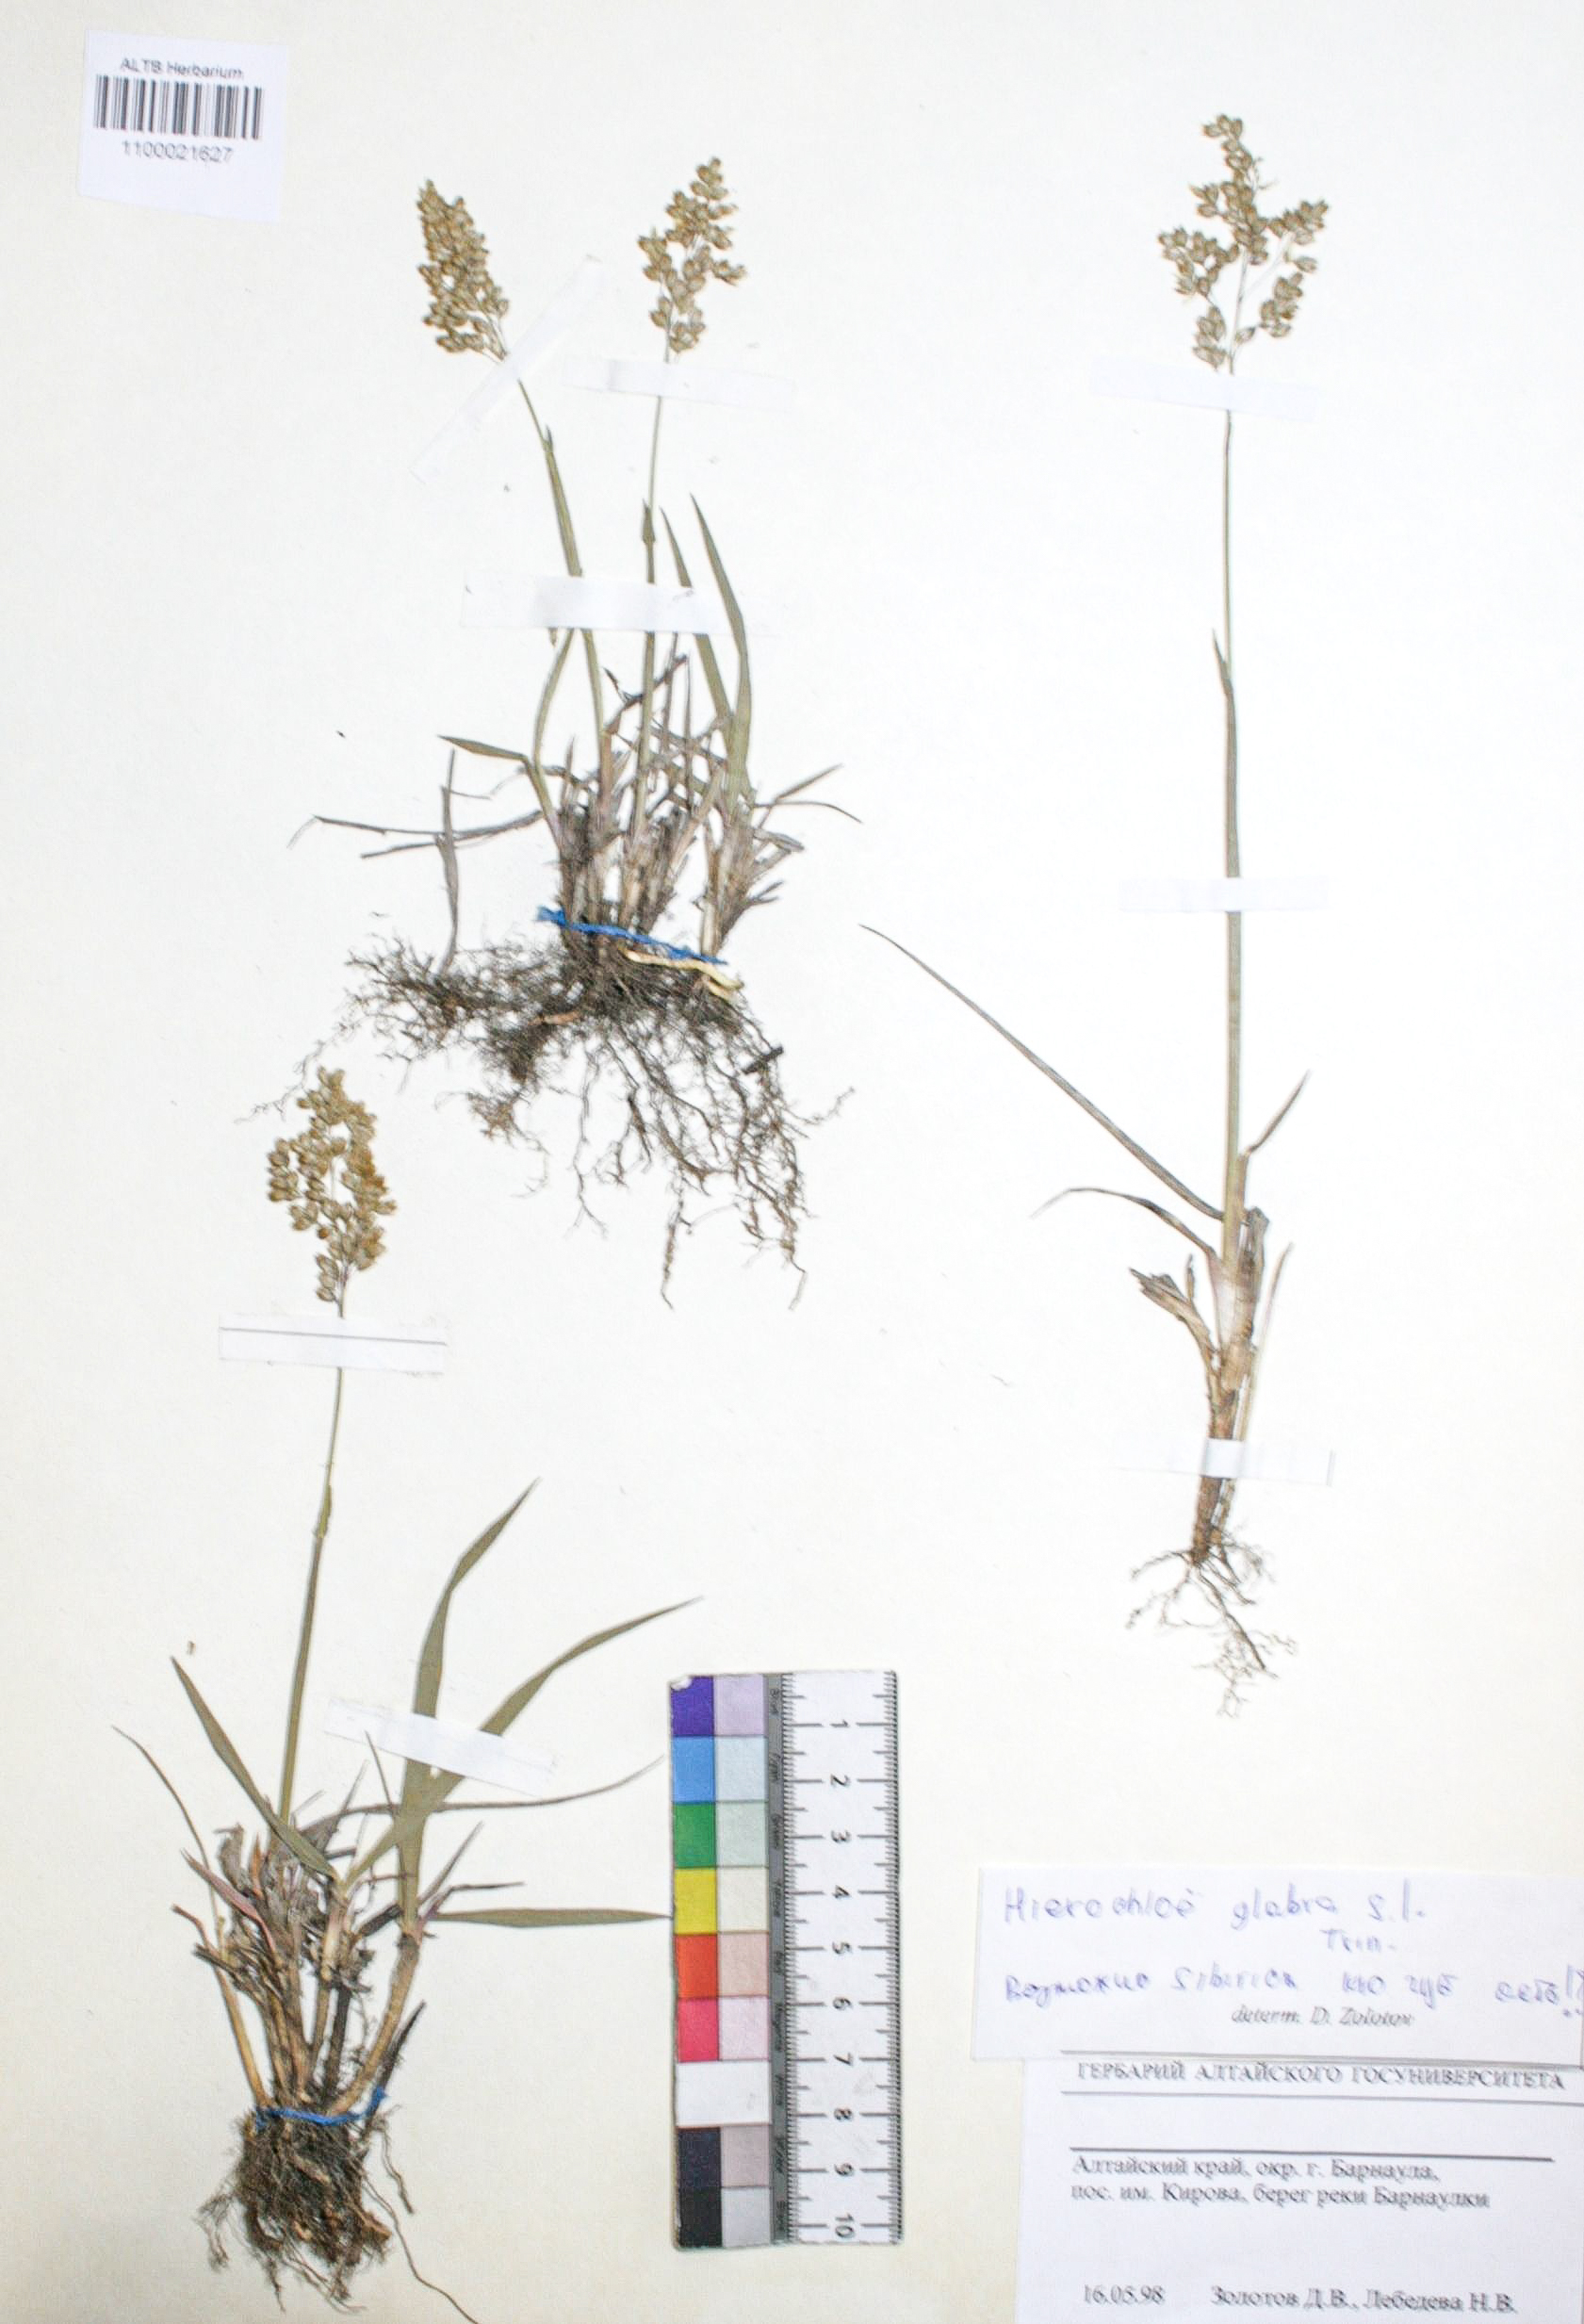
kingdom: Plantae
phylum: Tracheophyta
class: Liliopsida
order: Poales
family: Poaceae
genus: Anthoxanthum
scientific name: Anthoxanthum glabrum
